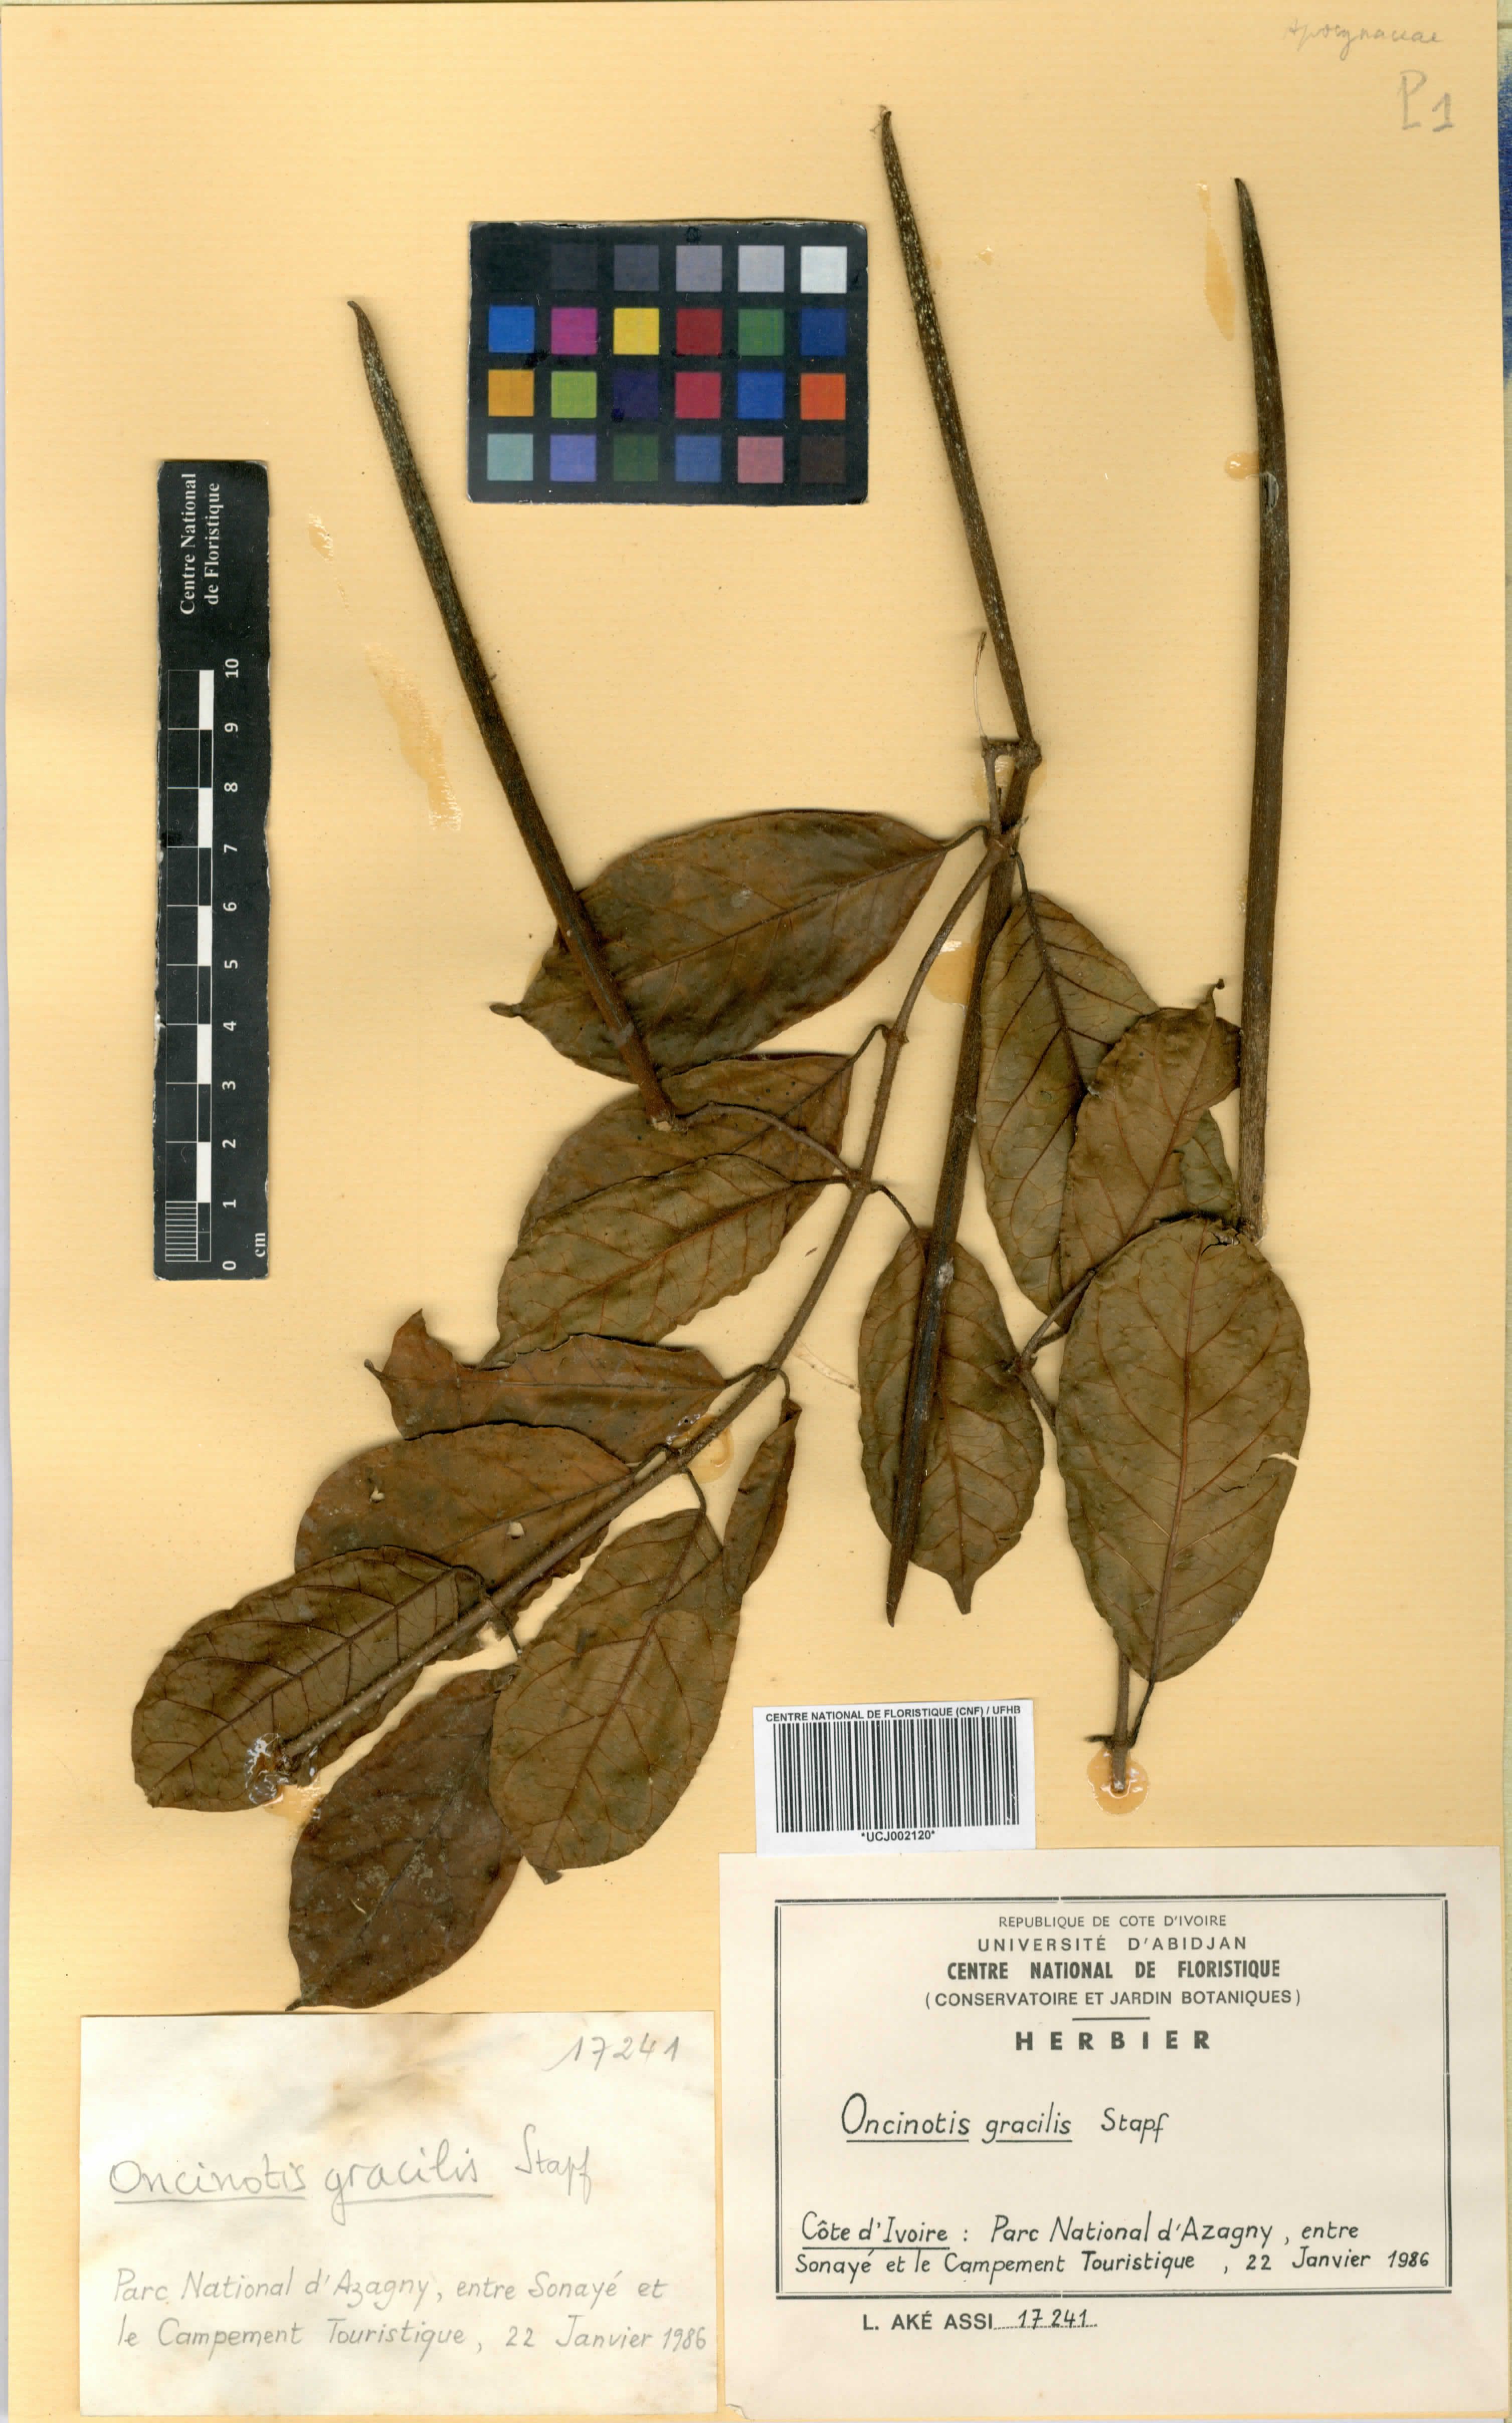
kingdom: Plantae
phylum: Tracheophyta
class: Magnoliopsida
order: Gentianales
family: Apocynaceae
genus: Oncinotis
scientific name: Oncinotis gracilis
